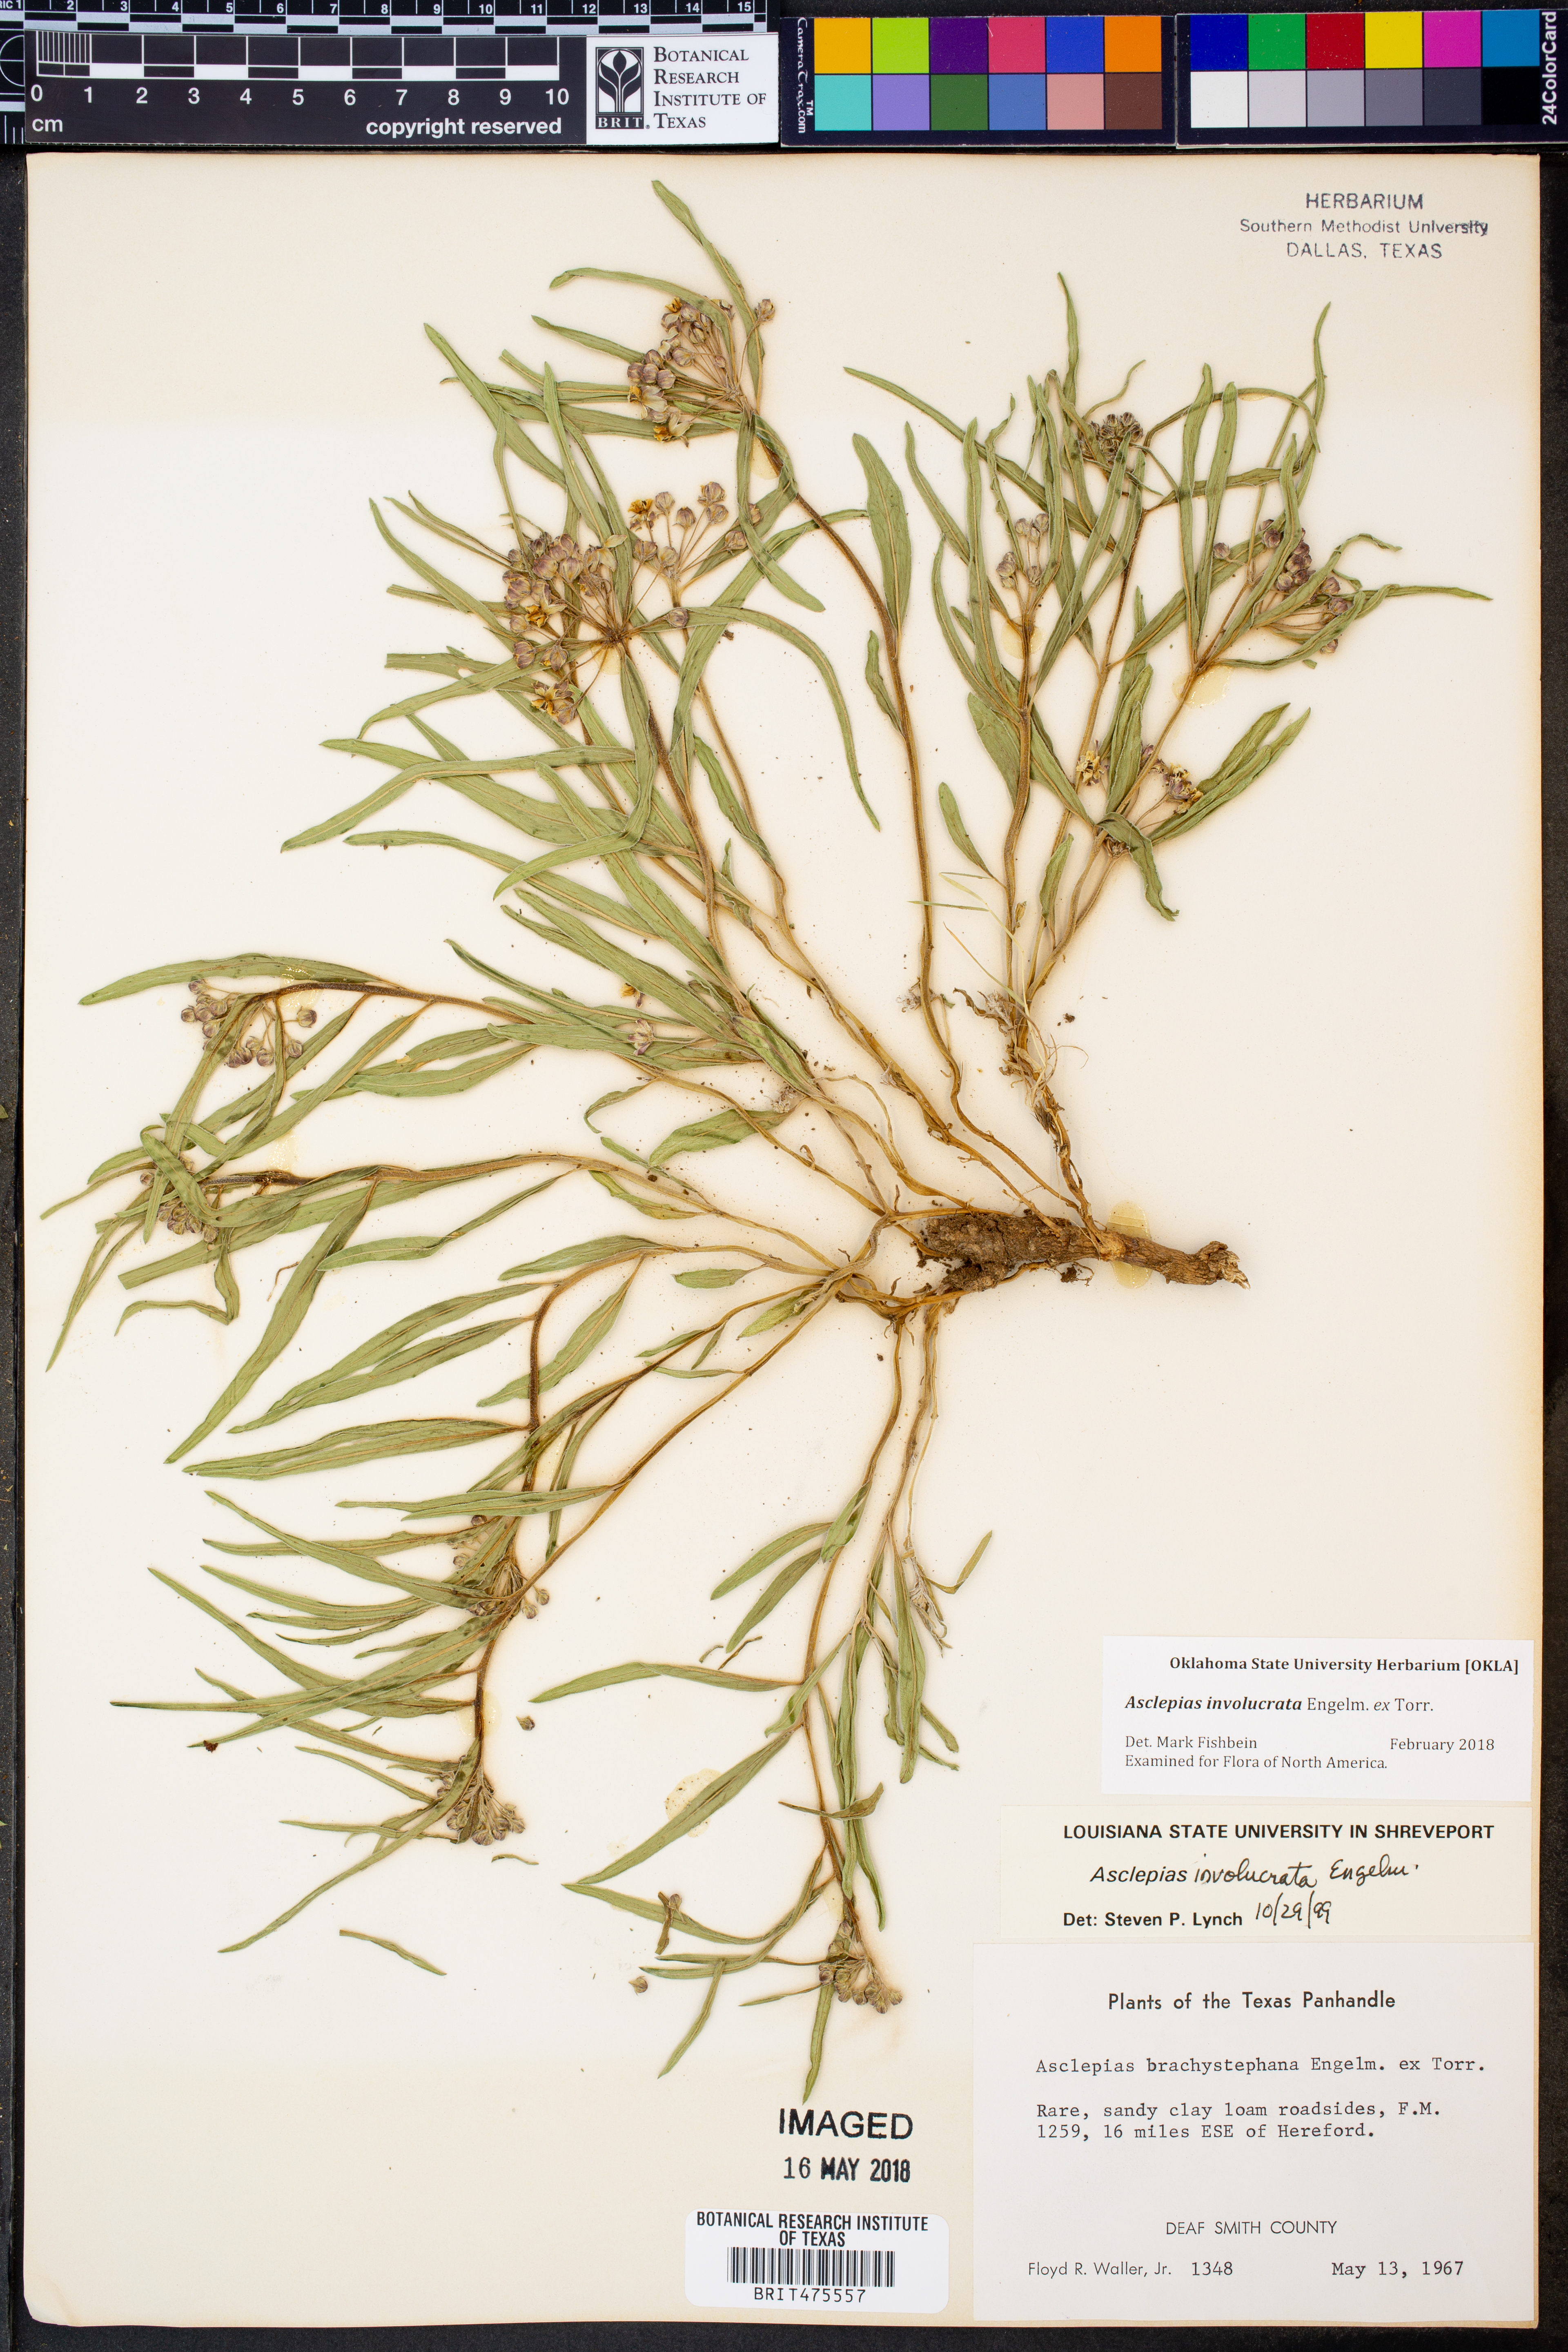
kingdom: Plantae
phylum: Tracheophyta
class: Magnoliopsida
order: Gentianales
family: Apocynaceae
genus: Asclepias
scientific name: Asclepias involucrata
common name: Dwarf milkweed
